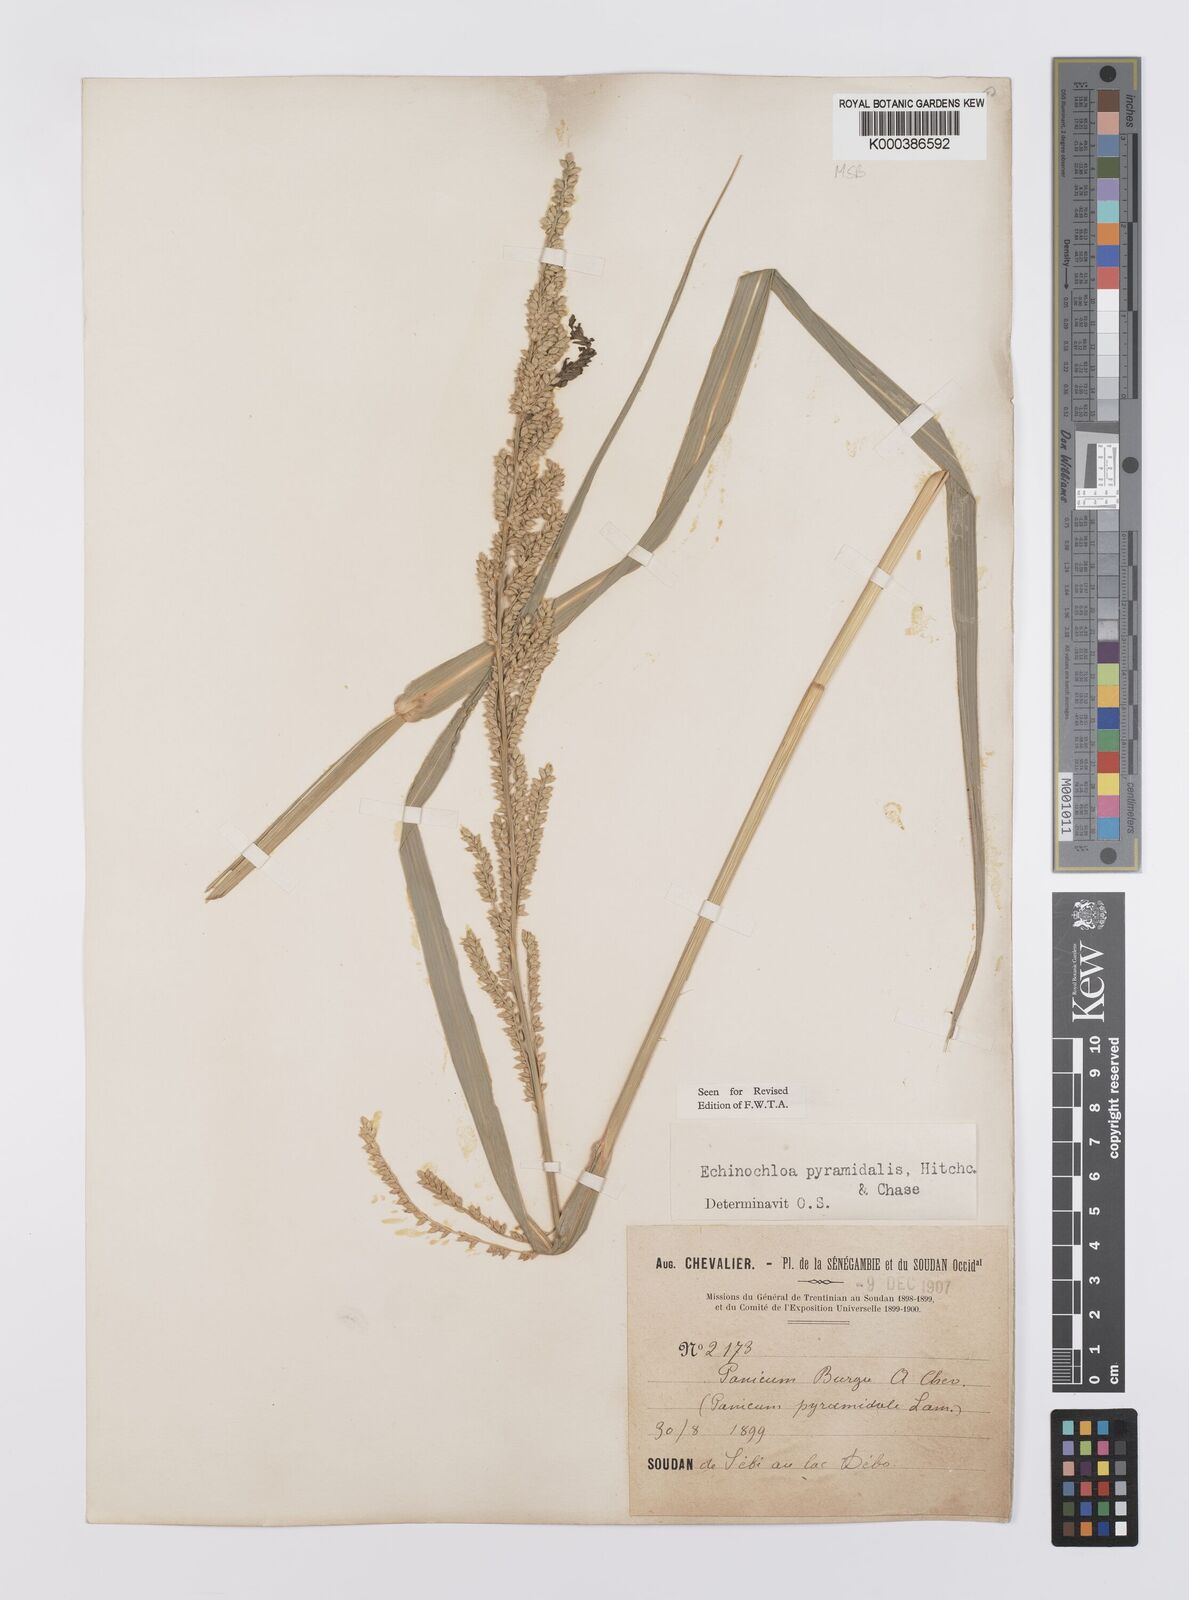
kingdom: Plantae
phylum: Tracheophyta
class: Liliopsida
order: Poales
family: Poaceae
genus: Echinochloa
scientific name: Echinochloa pyramidalis
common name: Antelope grass
